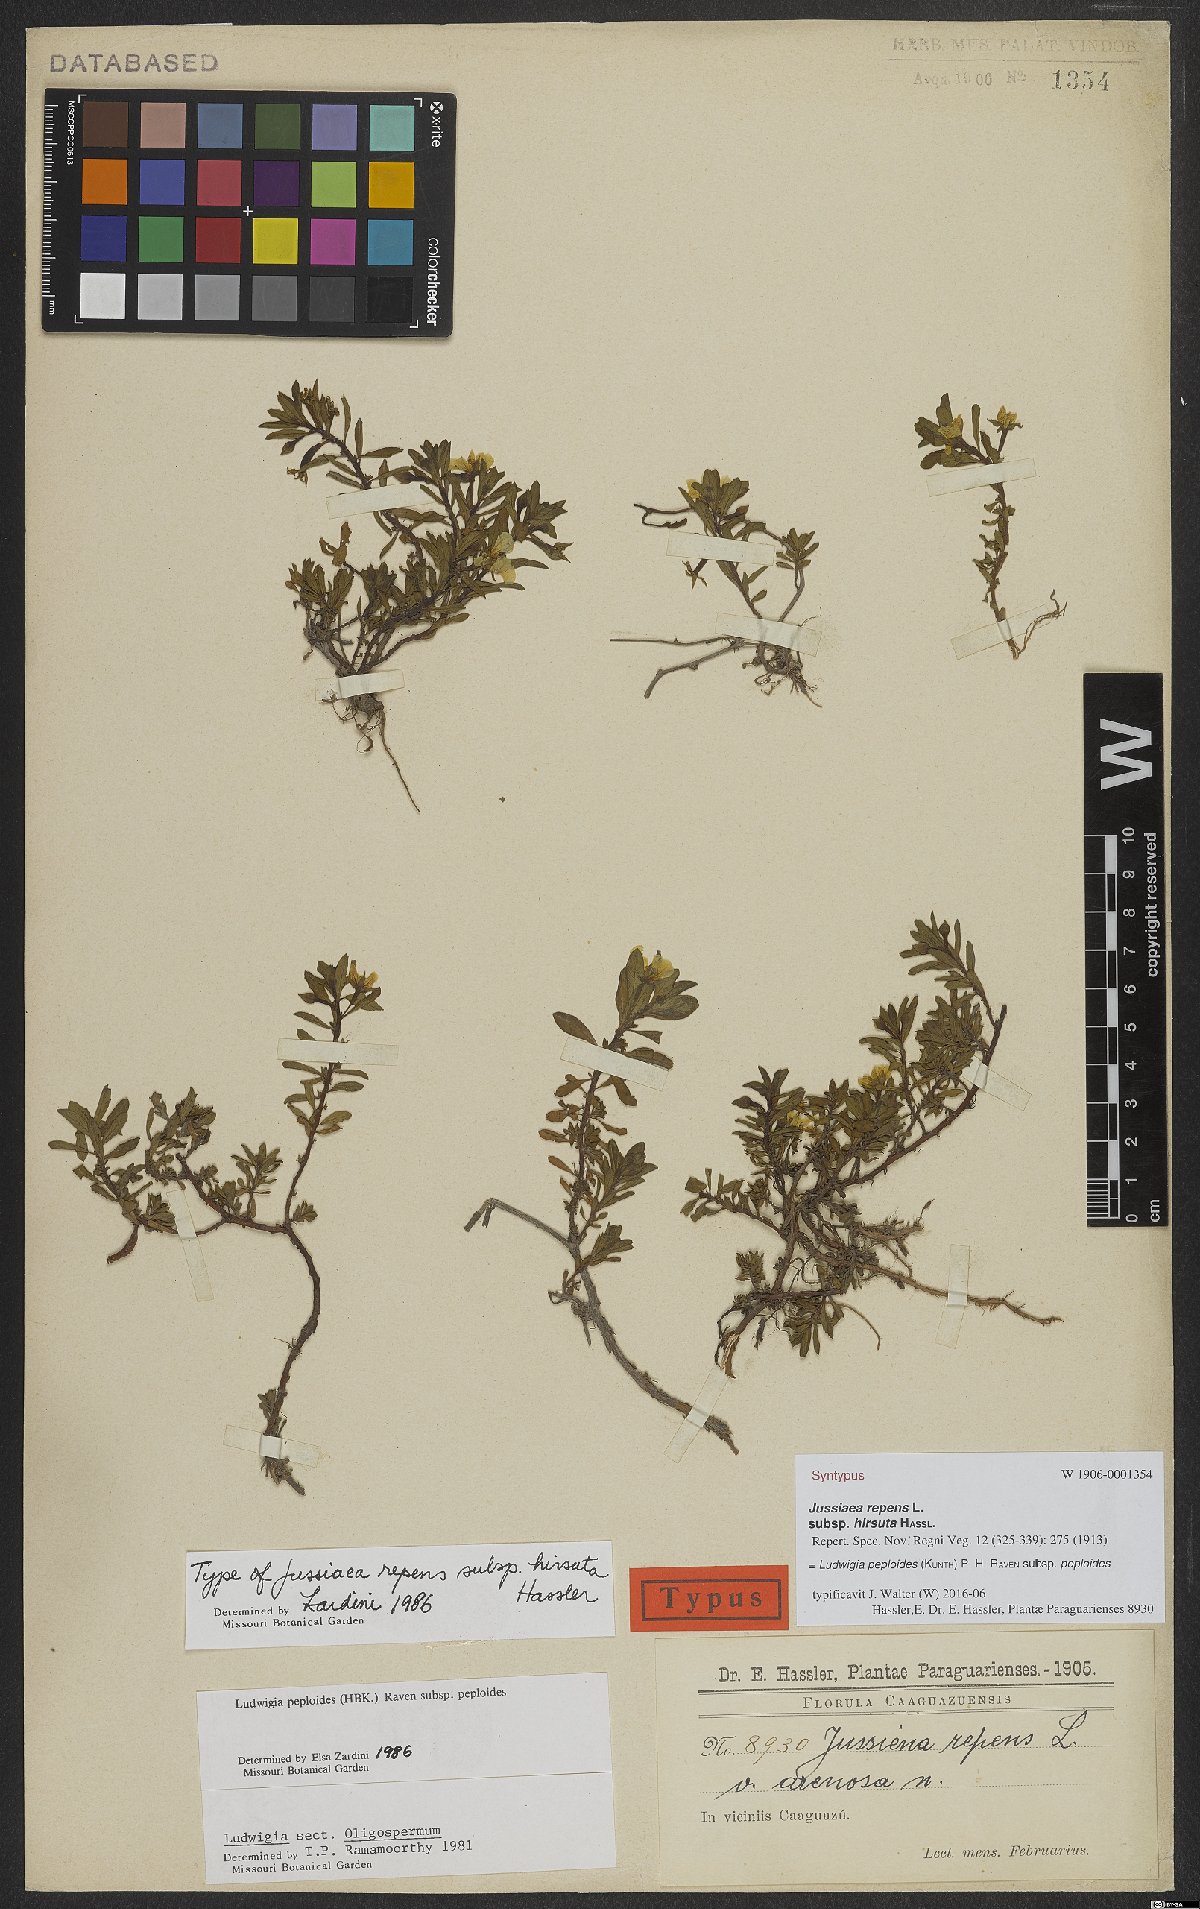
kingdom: Plantae
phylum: Tracheophyta
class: Magnoliopsida
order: Myrtales
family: Onagraceae
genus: Ludwigia
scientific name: Ludwigia peploides
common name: Floating primrose-willow
